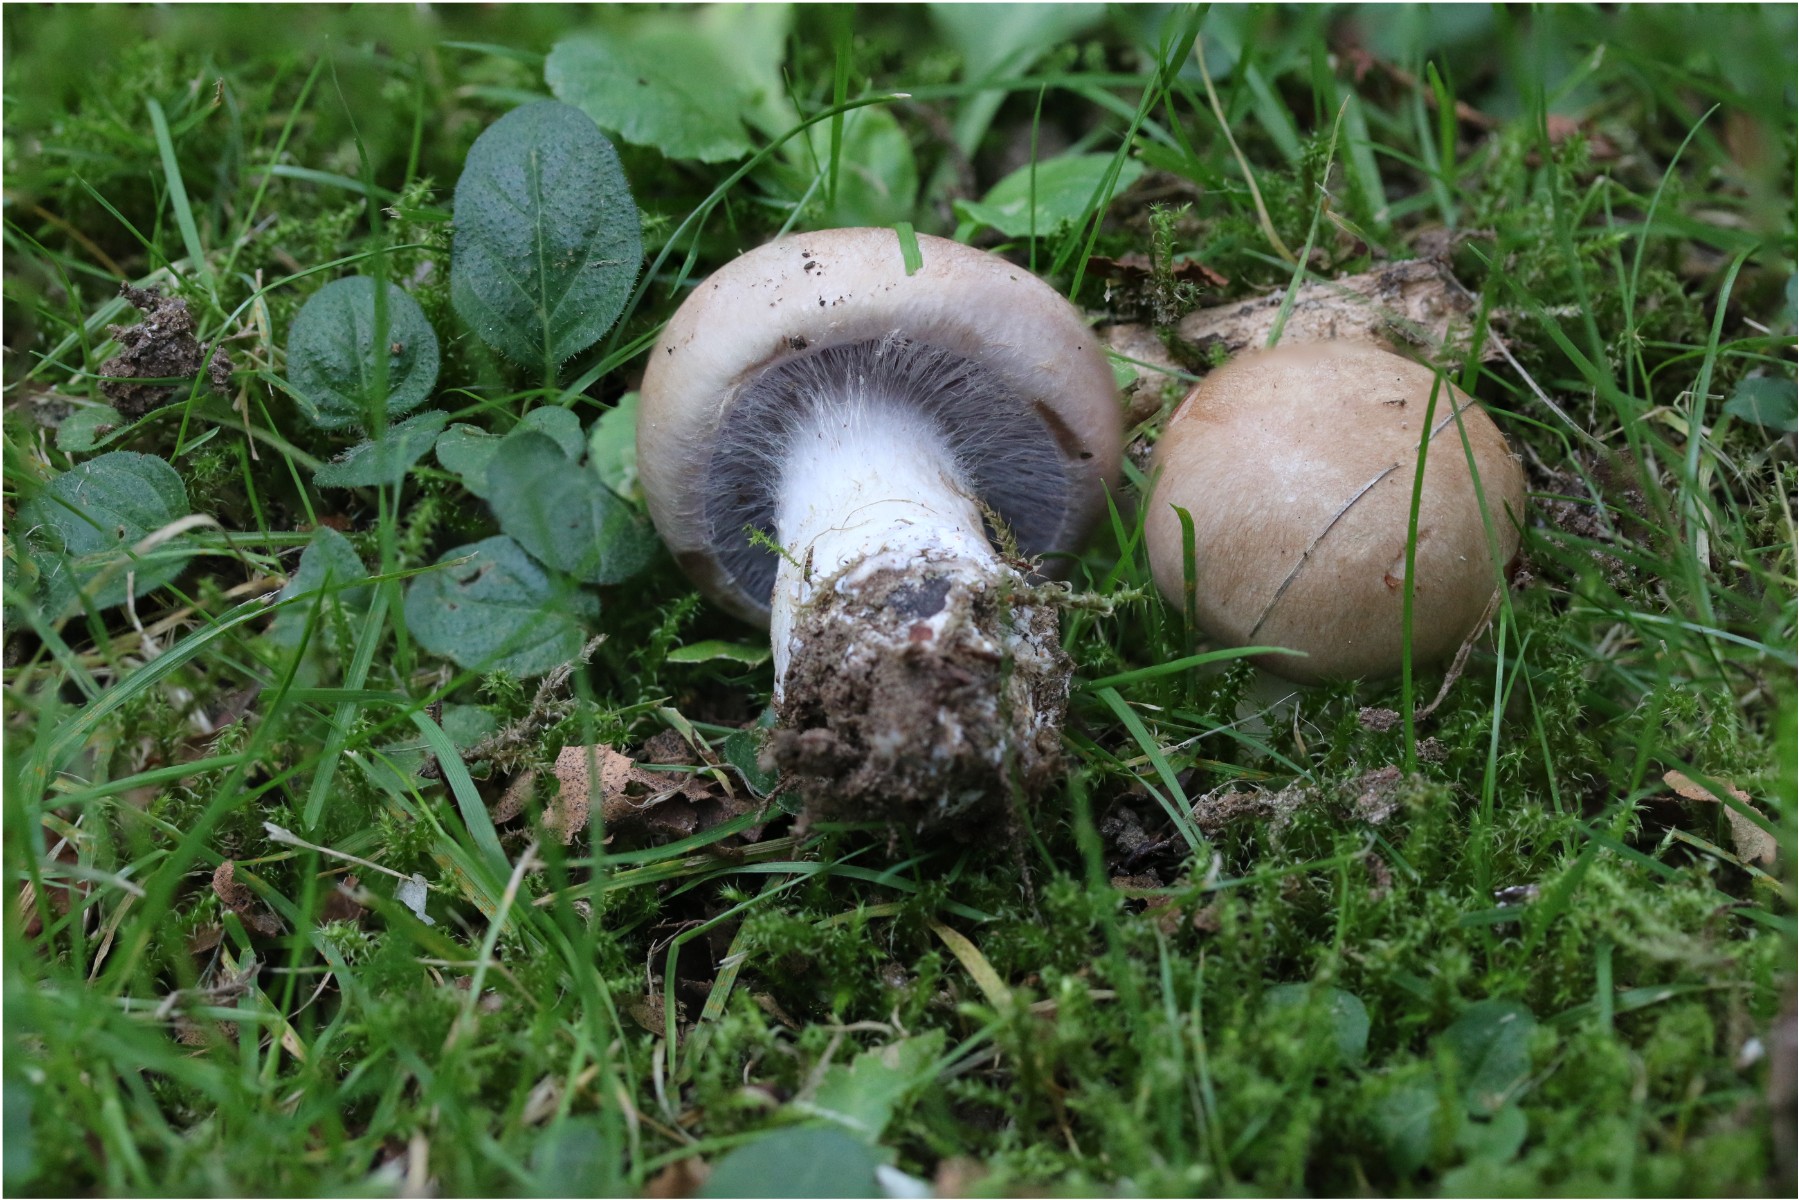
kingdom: Fungi
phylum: Basidiomycota
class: Agaricomycetes
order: Agaricales
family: Cortinariaceae
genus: Phlegmacium
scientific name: Phlegmacium
